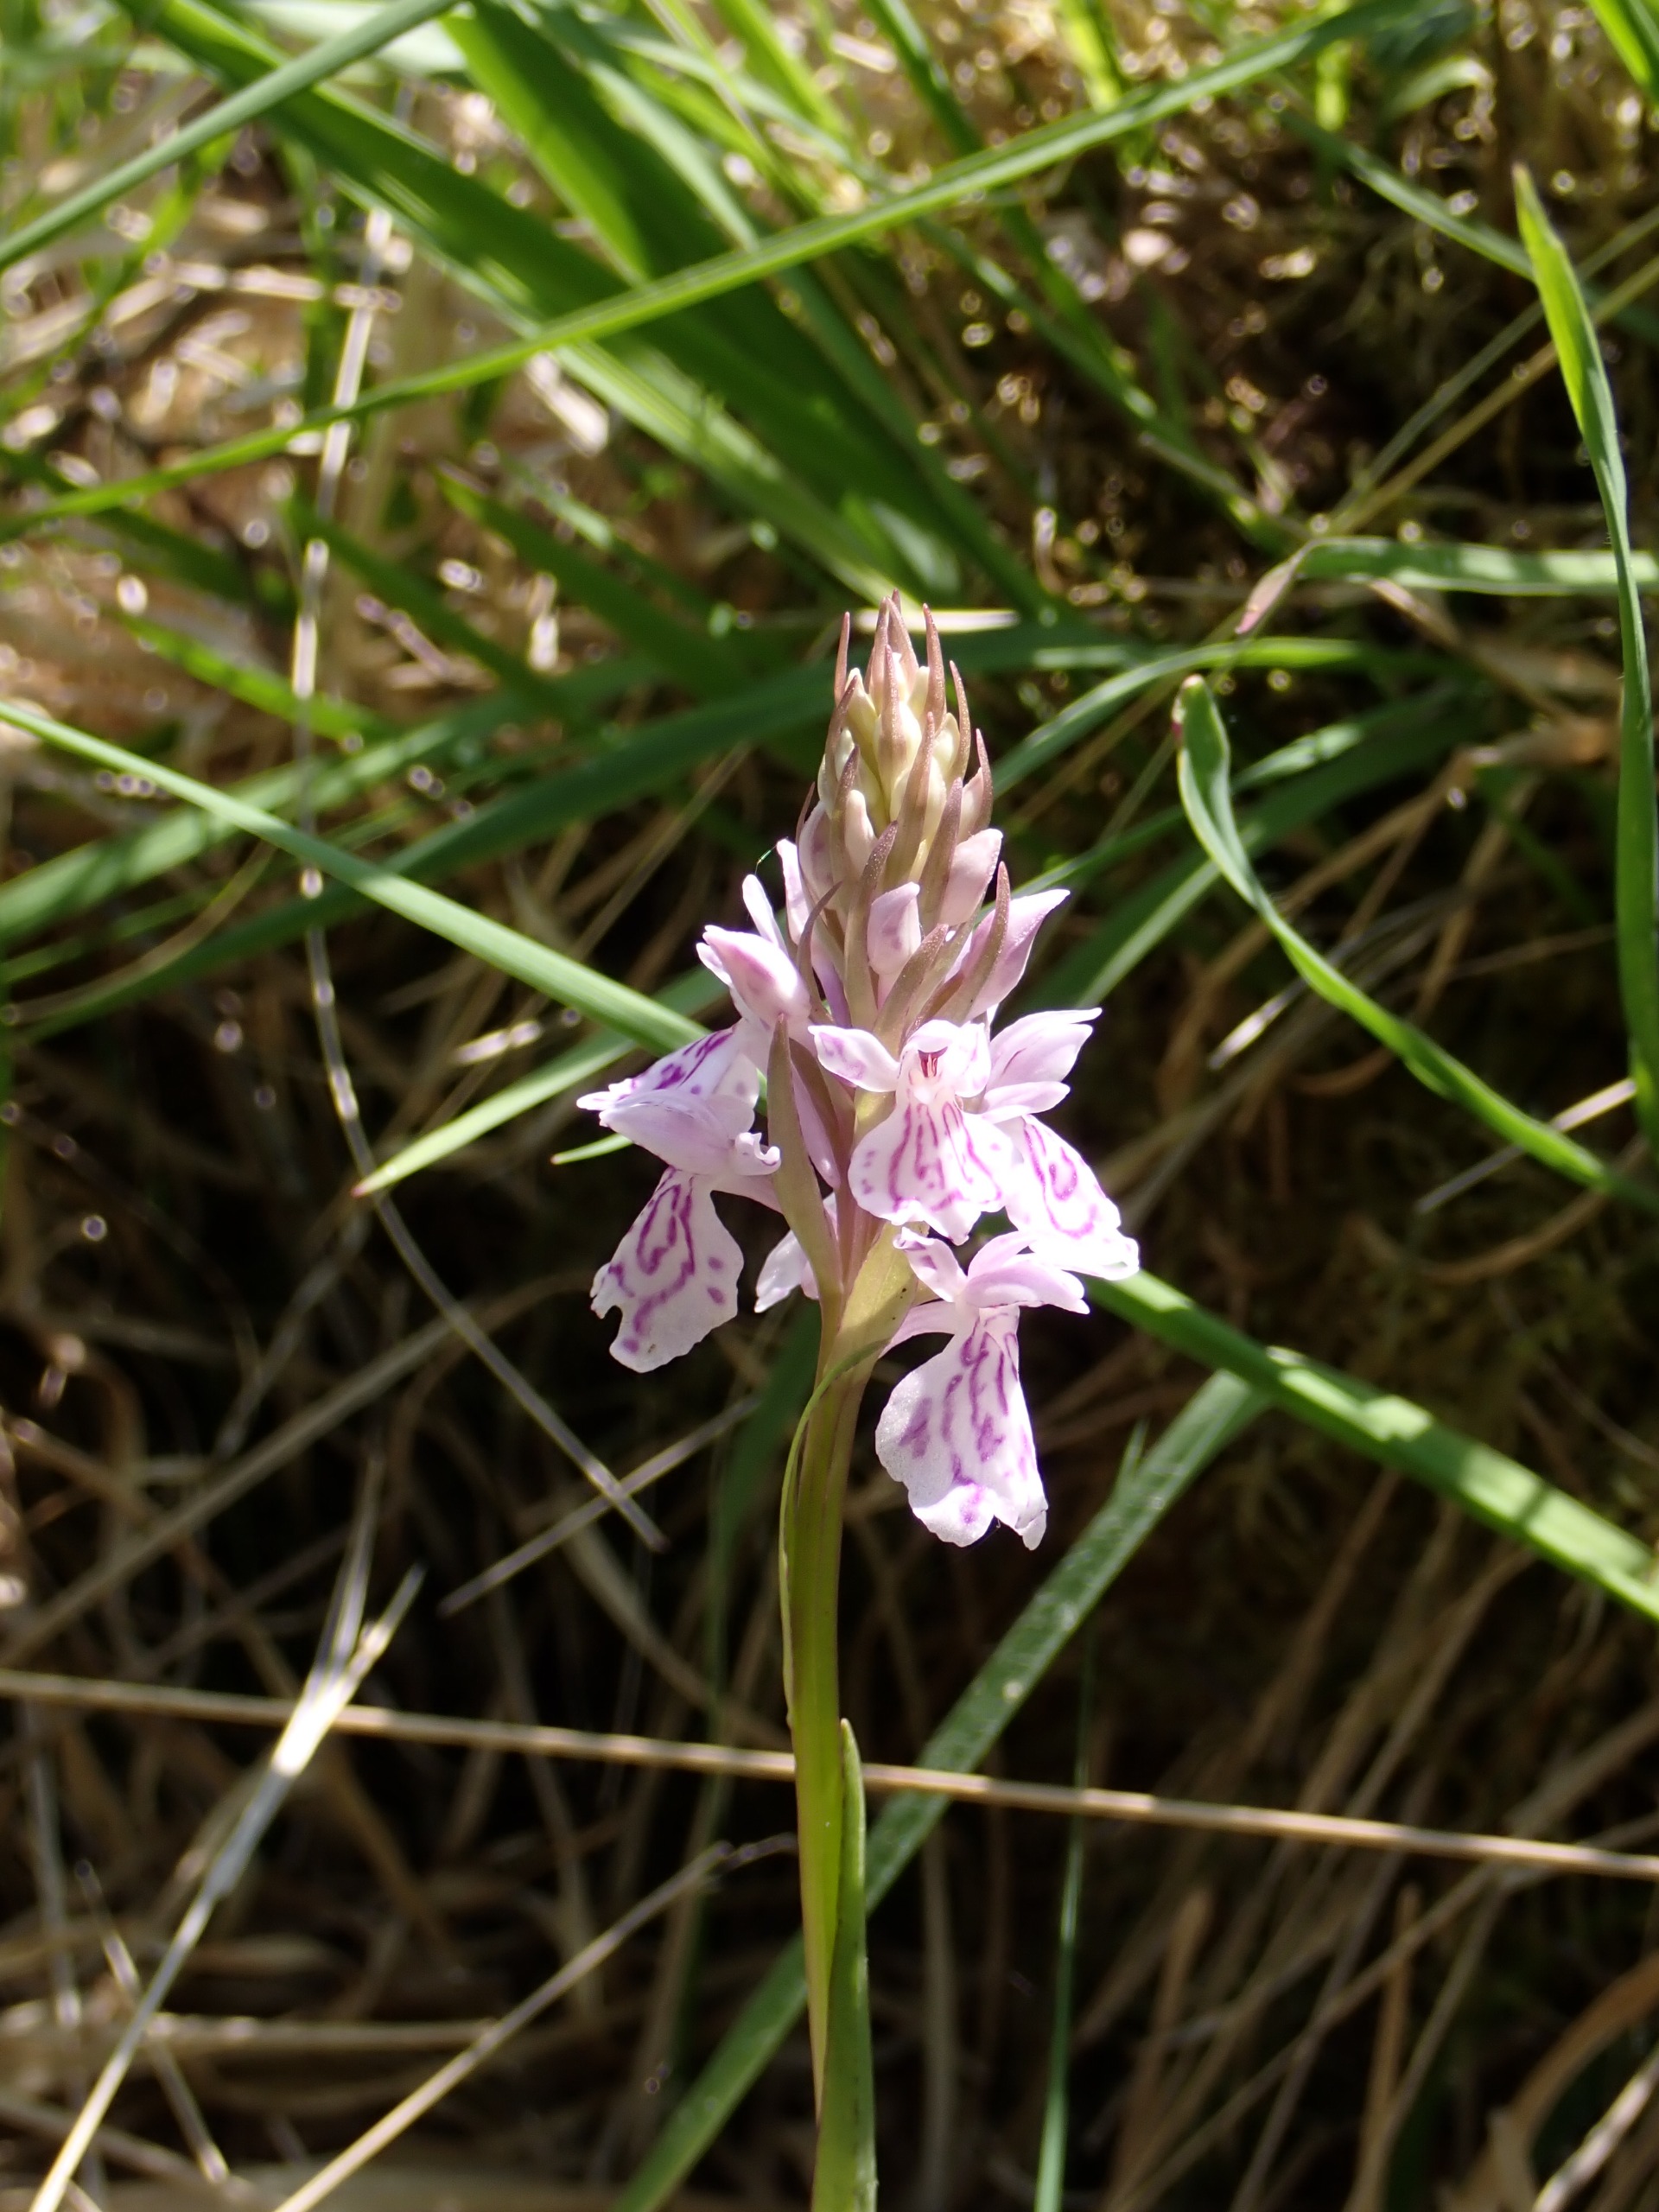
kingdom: Plantae
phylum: Tracheophyta
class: Liliopsida
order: Asparagales
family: Orchidaceae
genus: Dactylorhiza
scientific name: Dactylorhiza maculata
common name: Plettet gøgeurt
